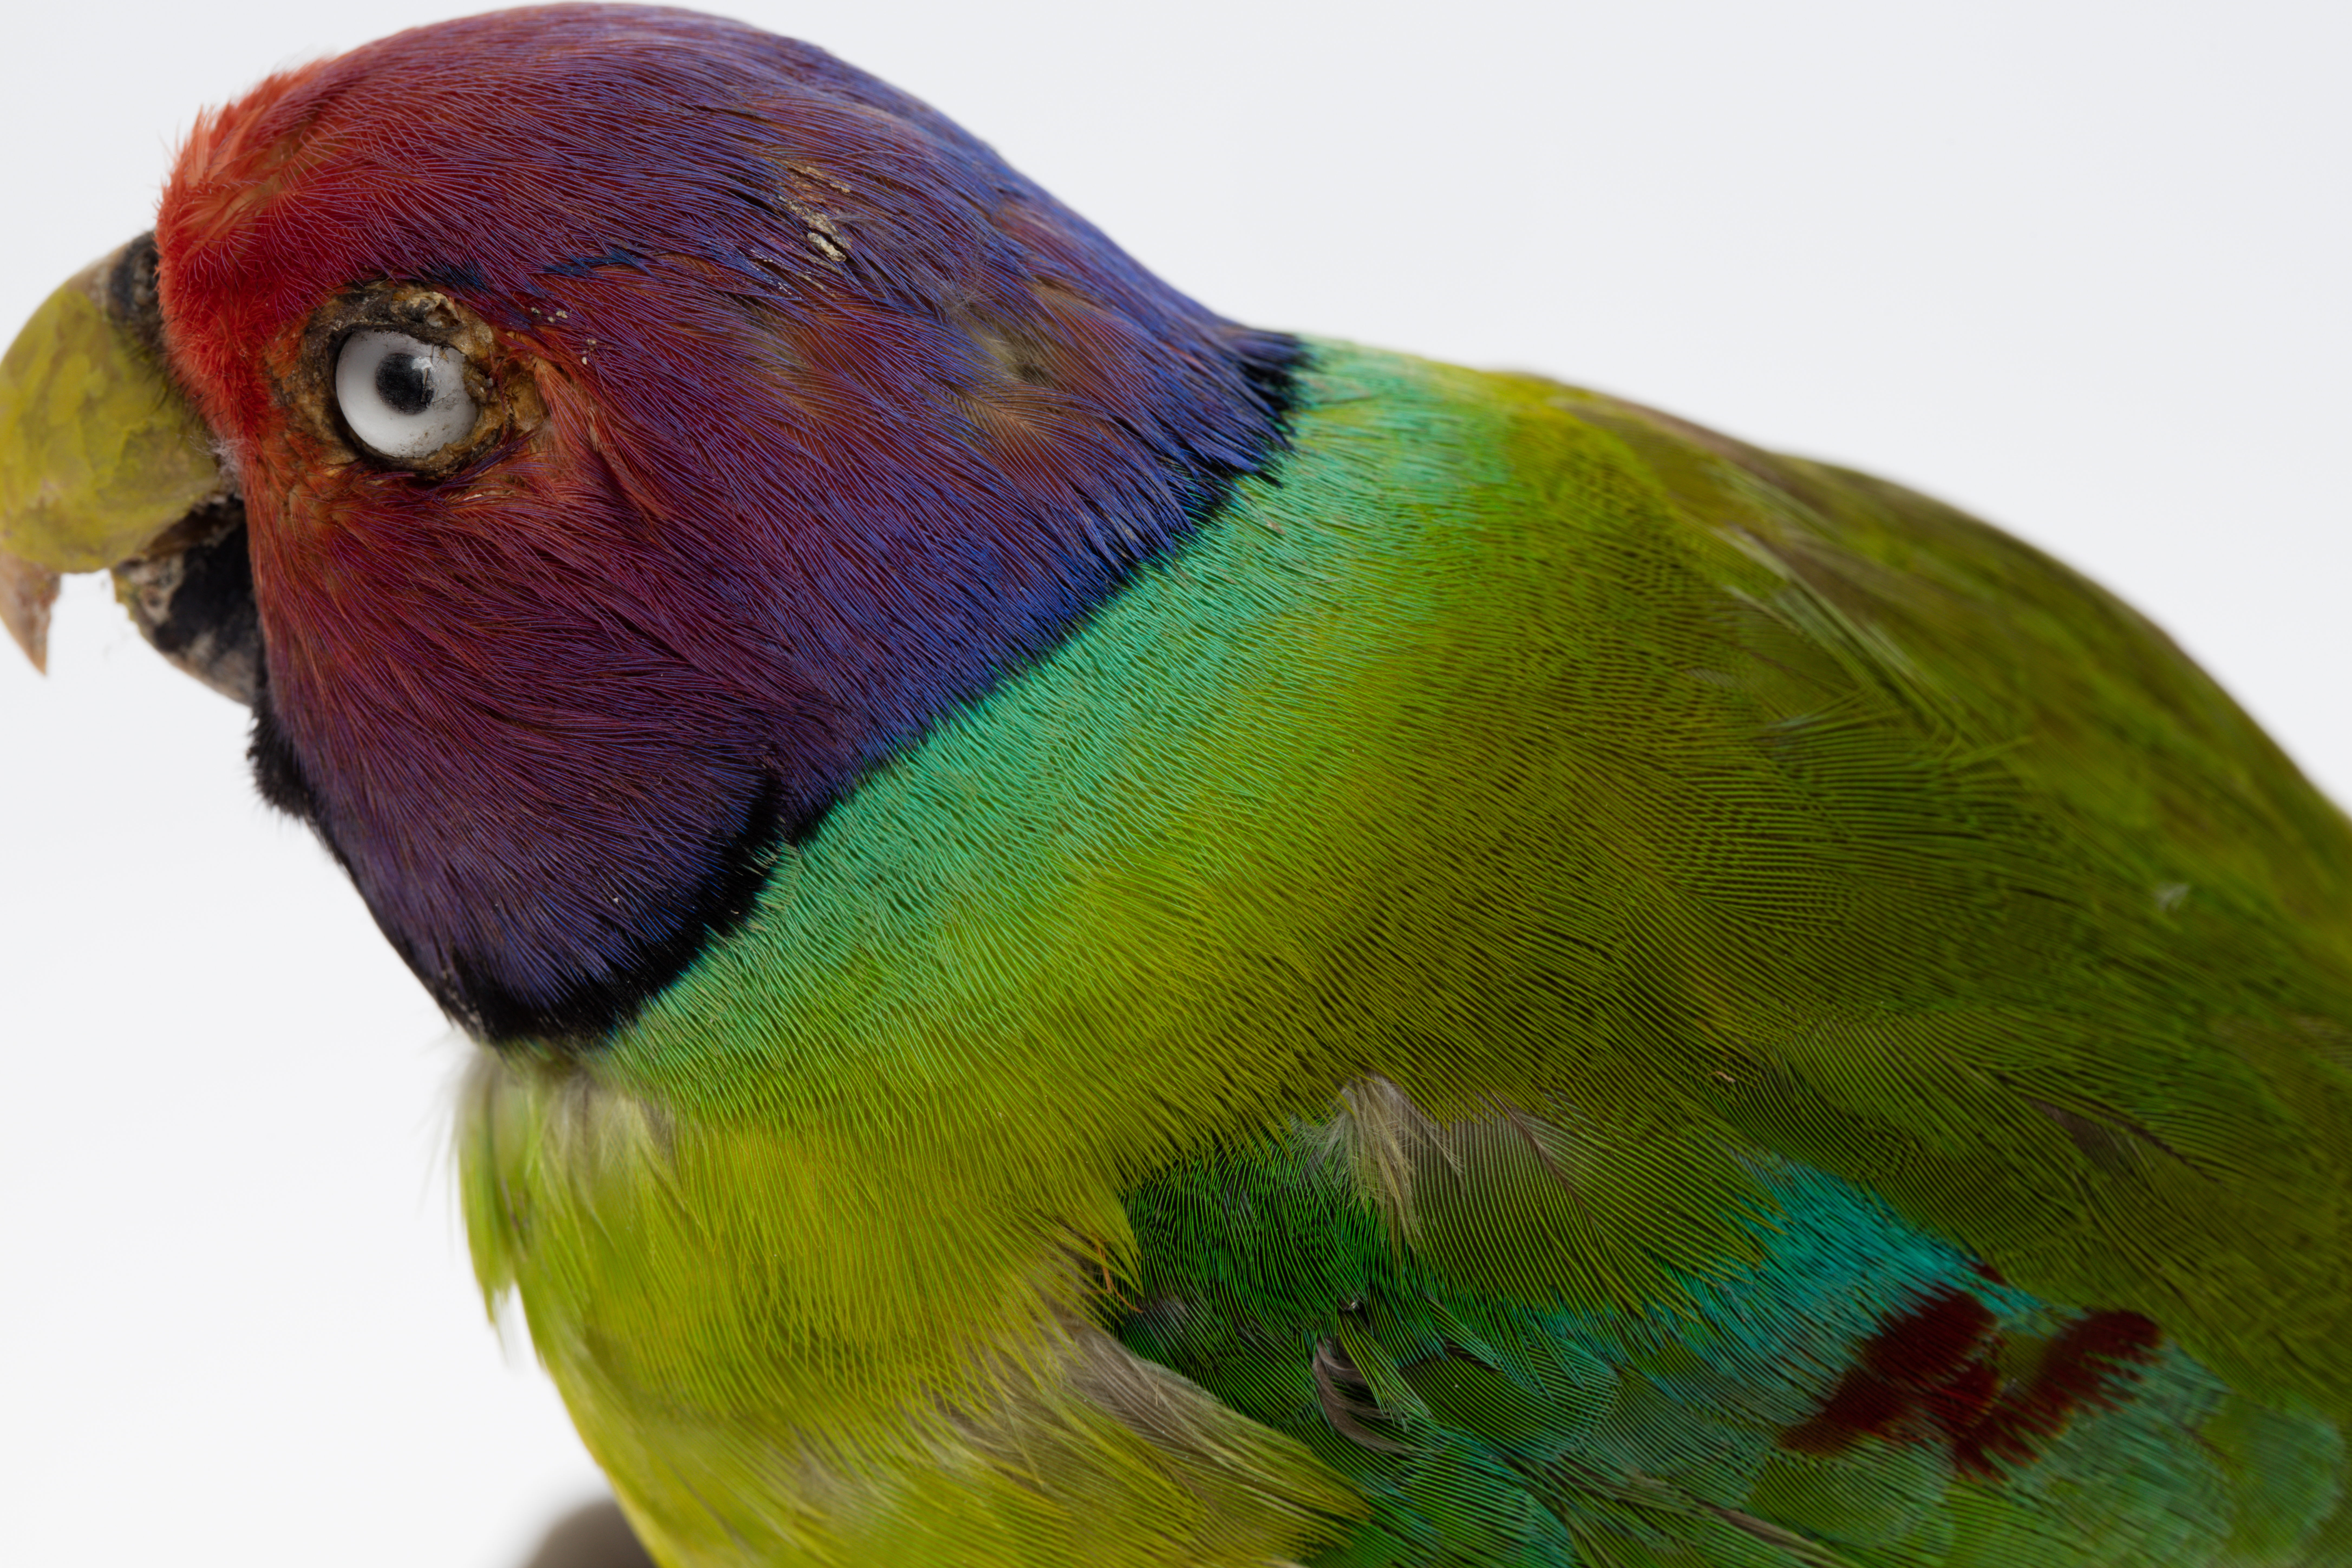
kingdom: Animalia
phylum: Chordata
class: Aves
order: Psittaciformes
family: Psittacidae
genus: Psittacula
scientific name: Psittacula cyanocephala
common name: Plum-headed parakeet
